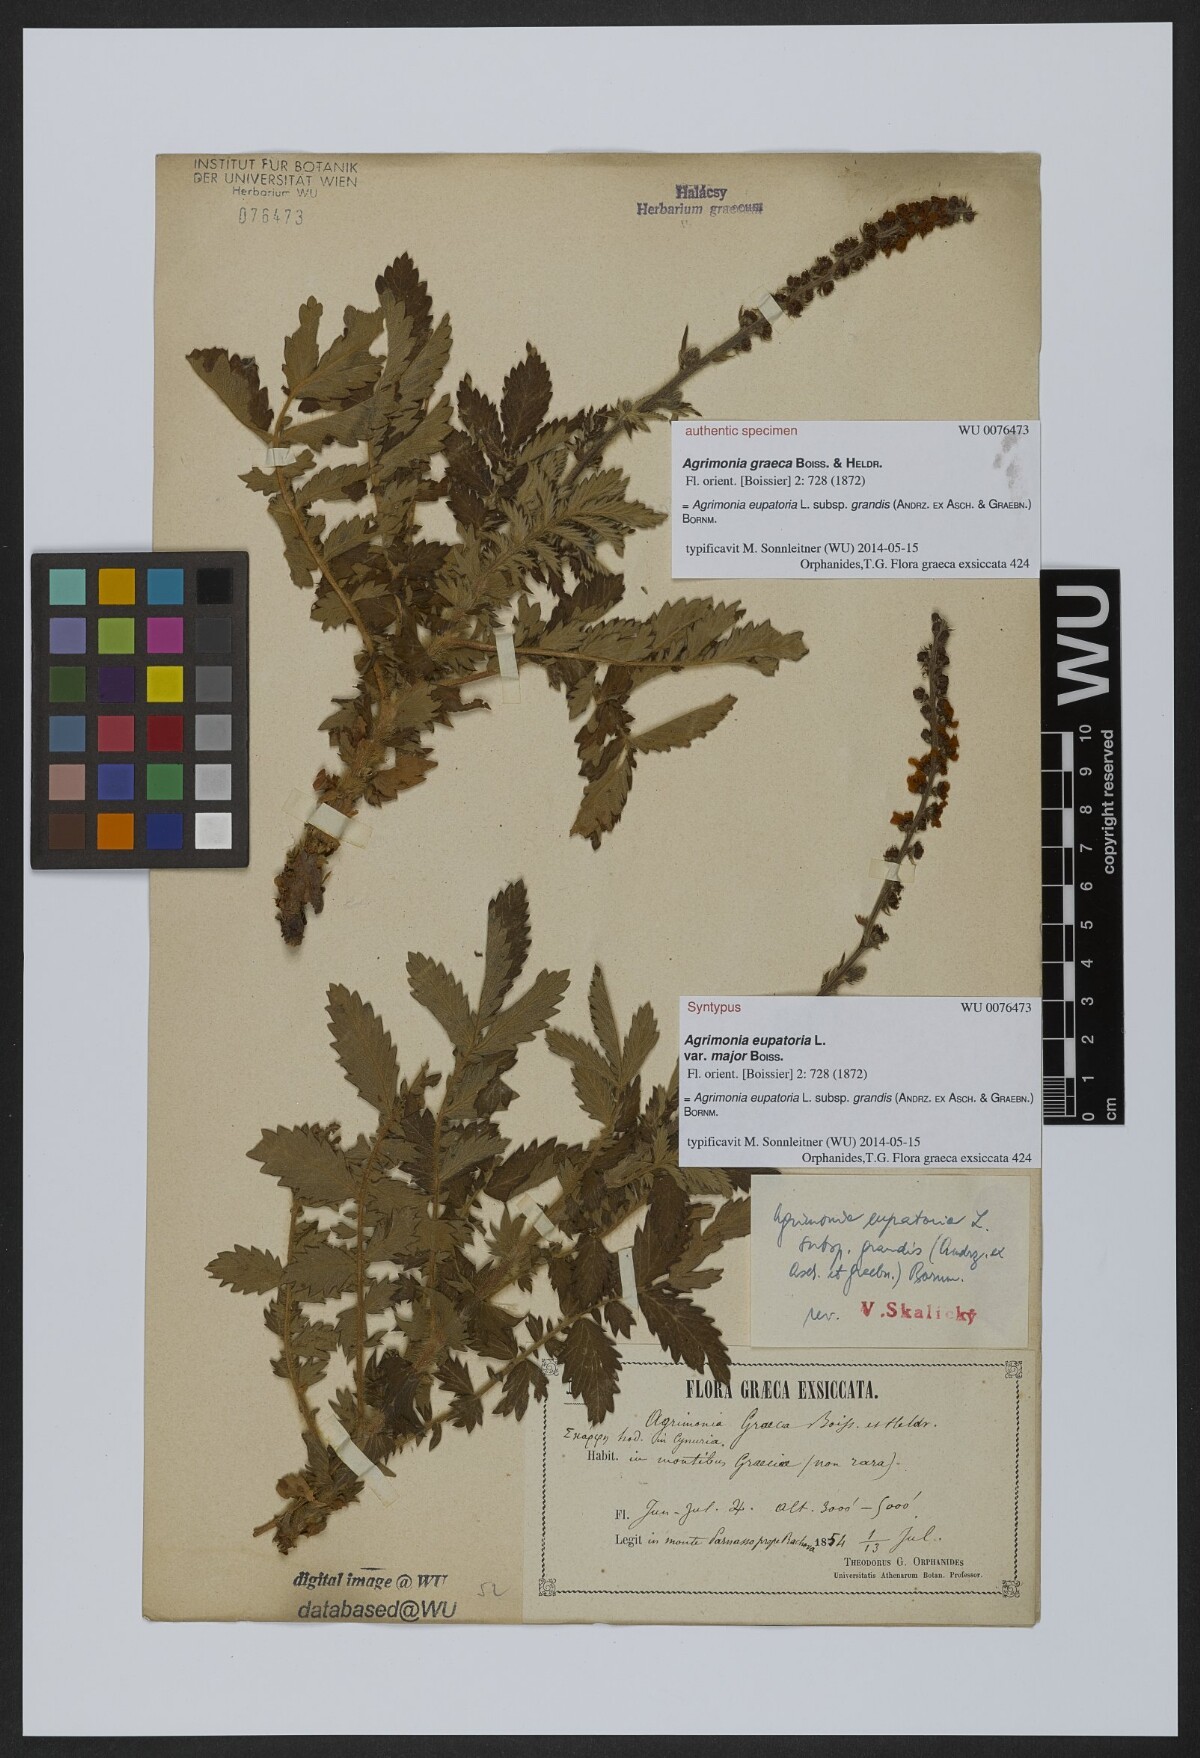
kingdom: Plantae
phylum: Tracheophyta
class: Magnoliopsida
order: Rosales
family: Rosaceae
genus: Agrimonia
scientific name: Agrimonia eupatoria
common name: Agrimony
